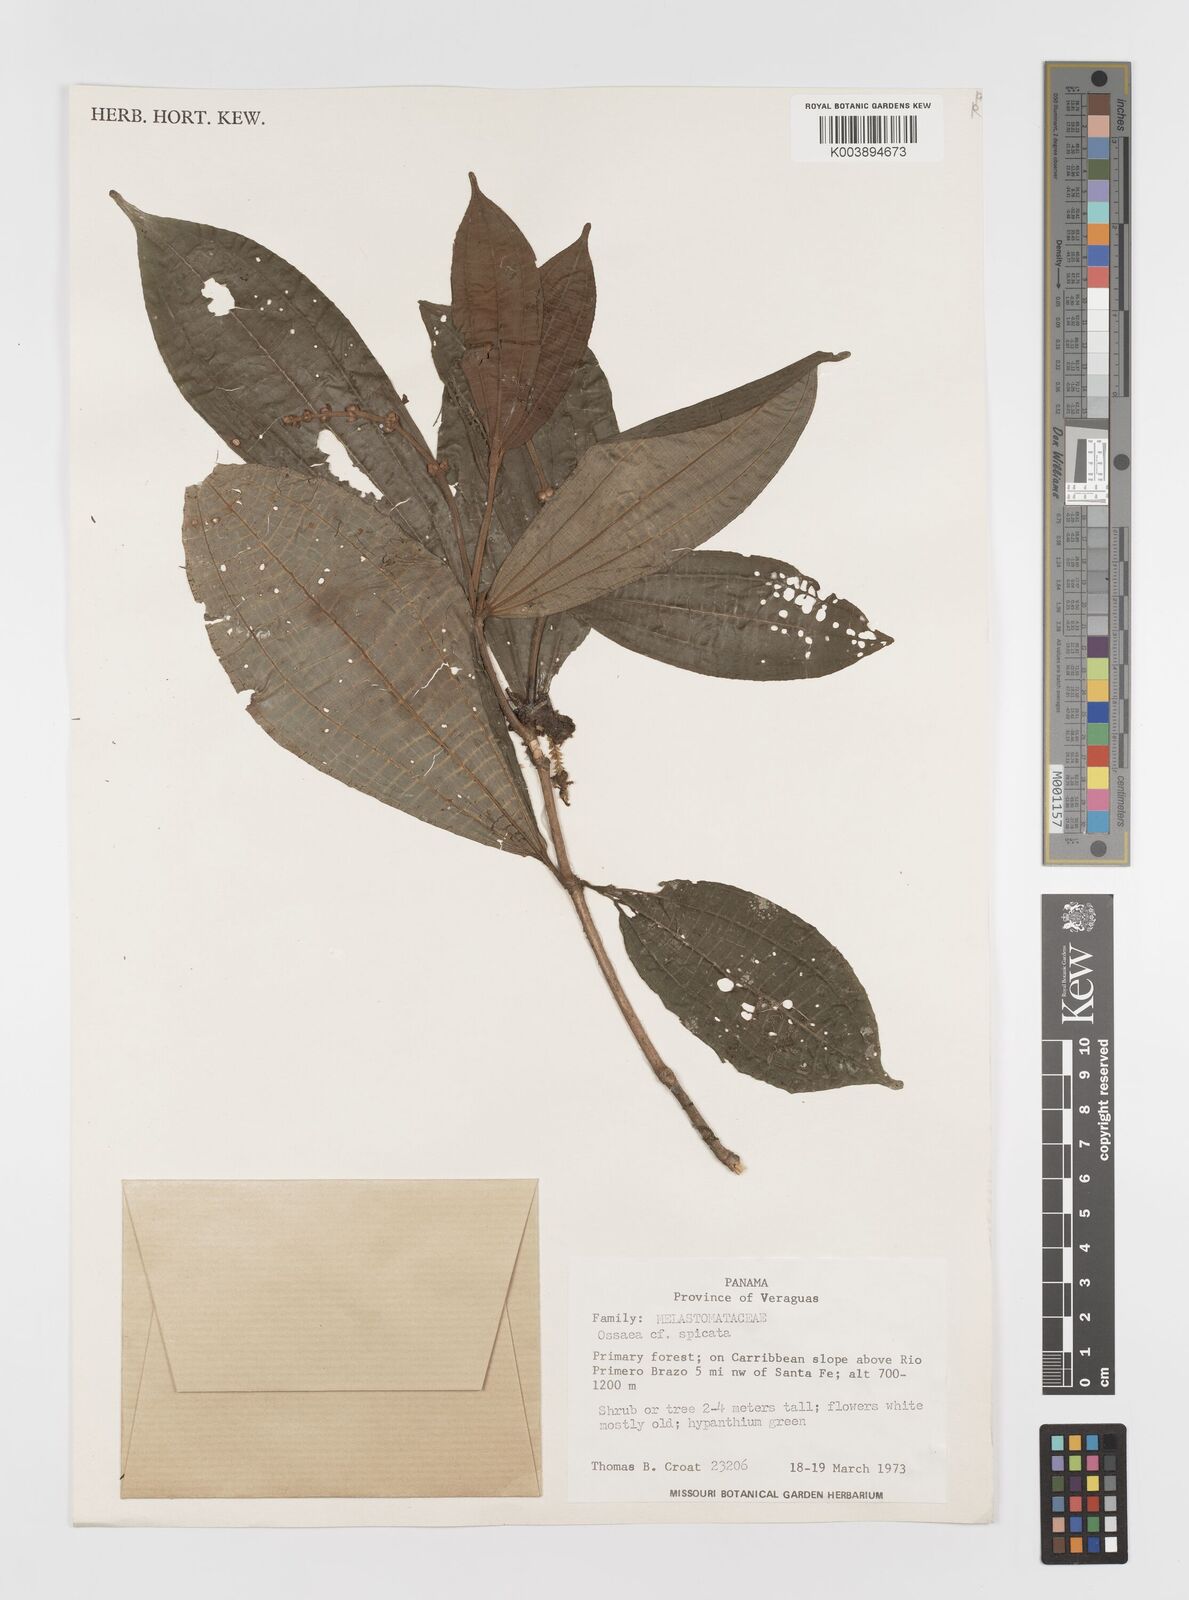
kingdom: Plantae
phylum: Tracheophyta
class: Magnoliopsida
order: Myrtales
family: Melastomataceae
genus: Miconia
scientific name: Miconia spicata
